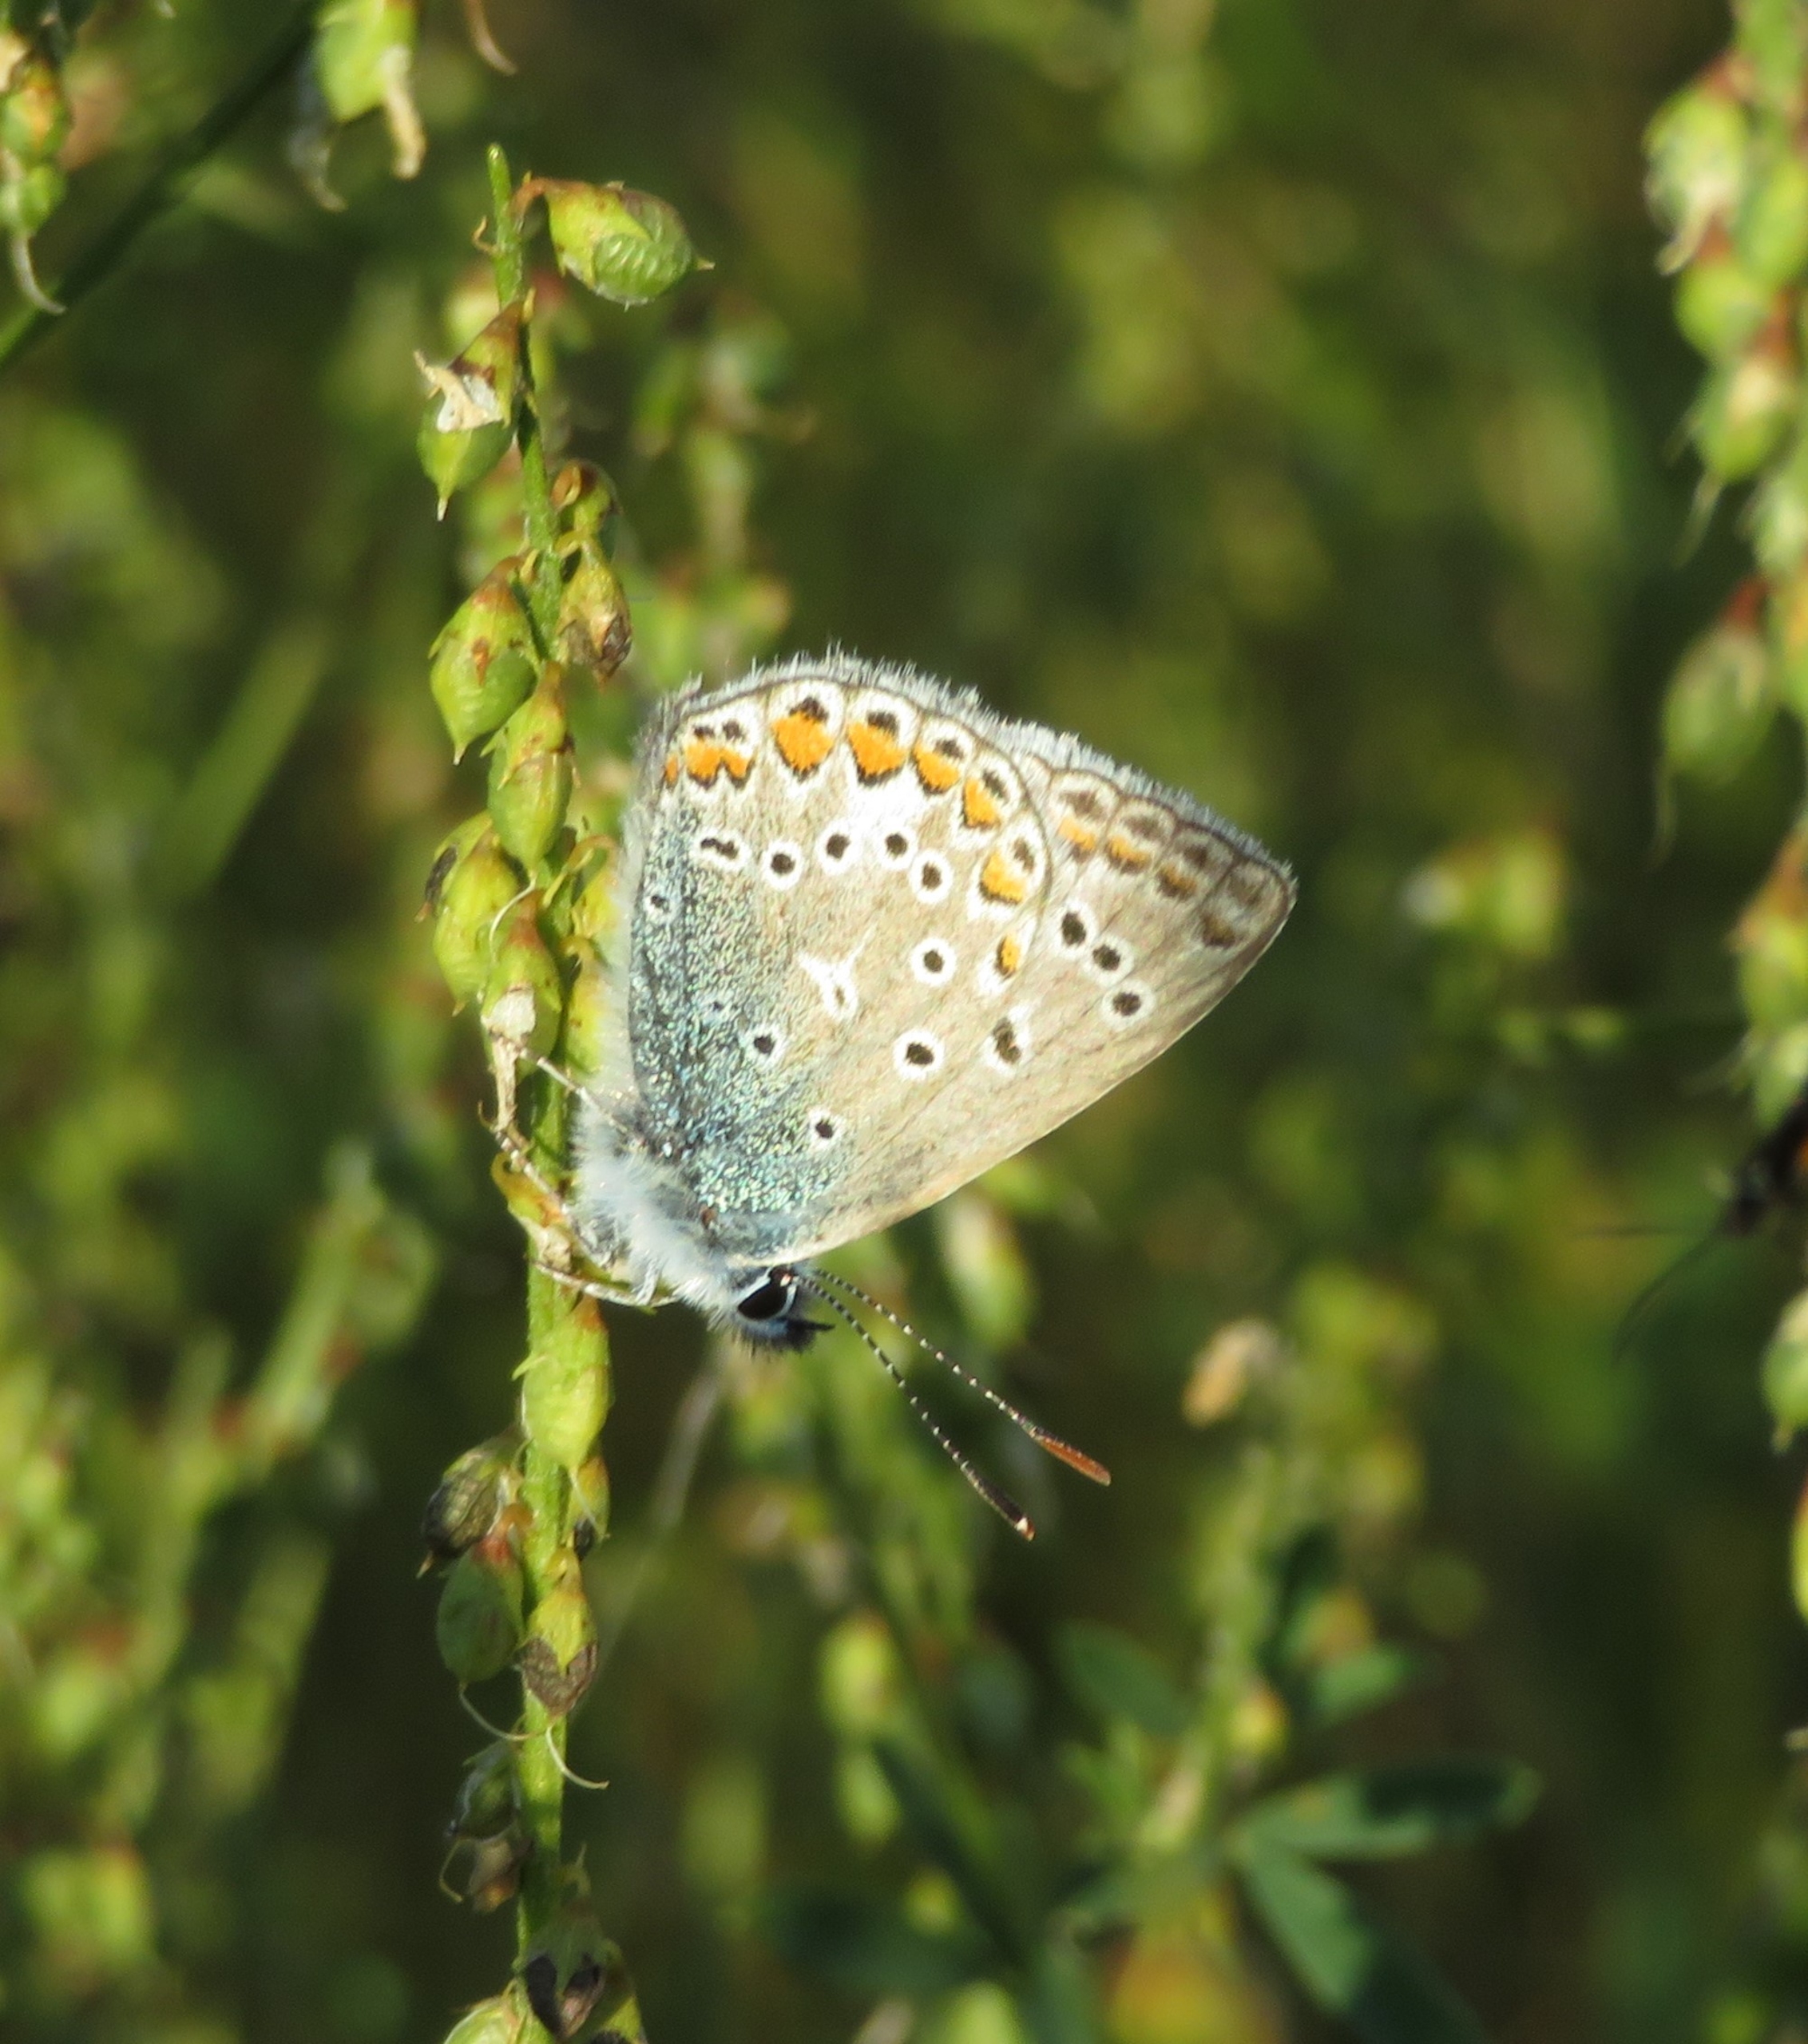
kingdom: Animalia
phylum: Arthropoda
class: Insecta
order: Lepidoptera
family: Lycaenidae
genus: Polyommatus
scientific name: Polyommatus icarus
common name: Almindelig blåfugl
